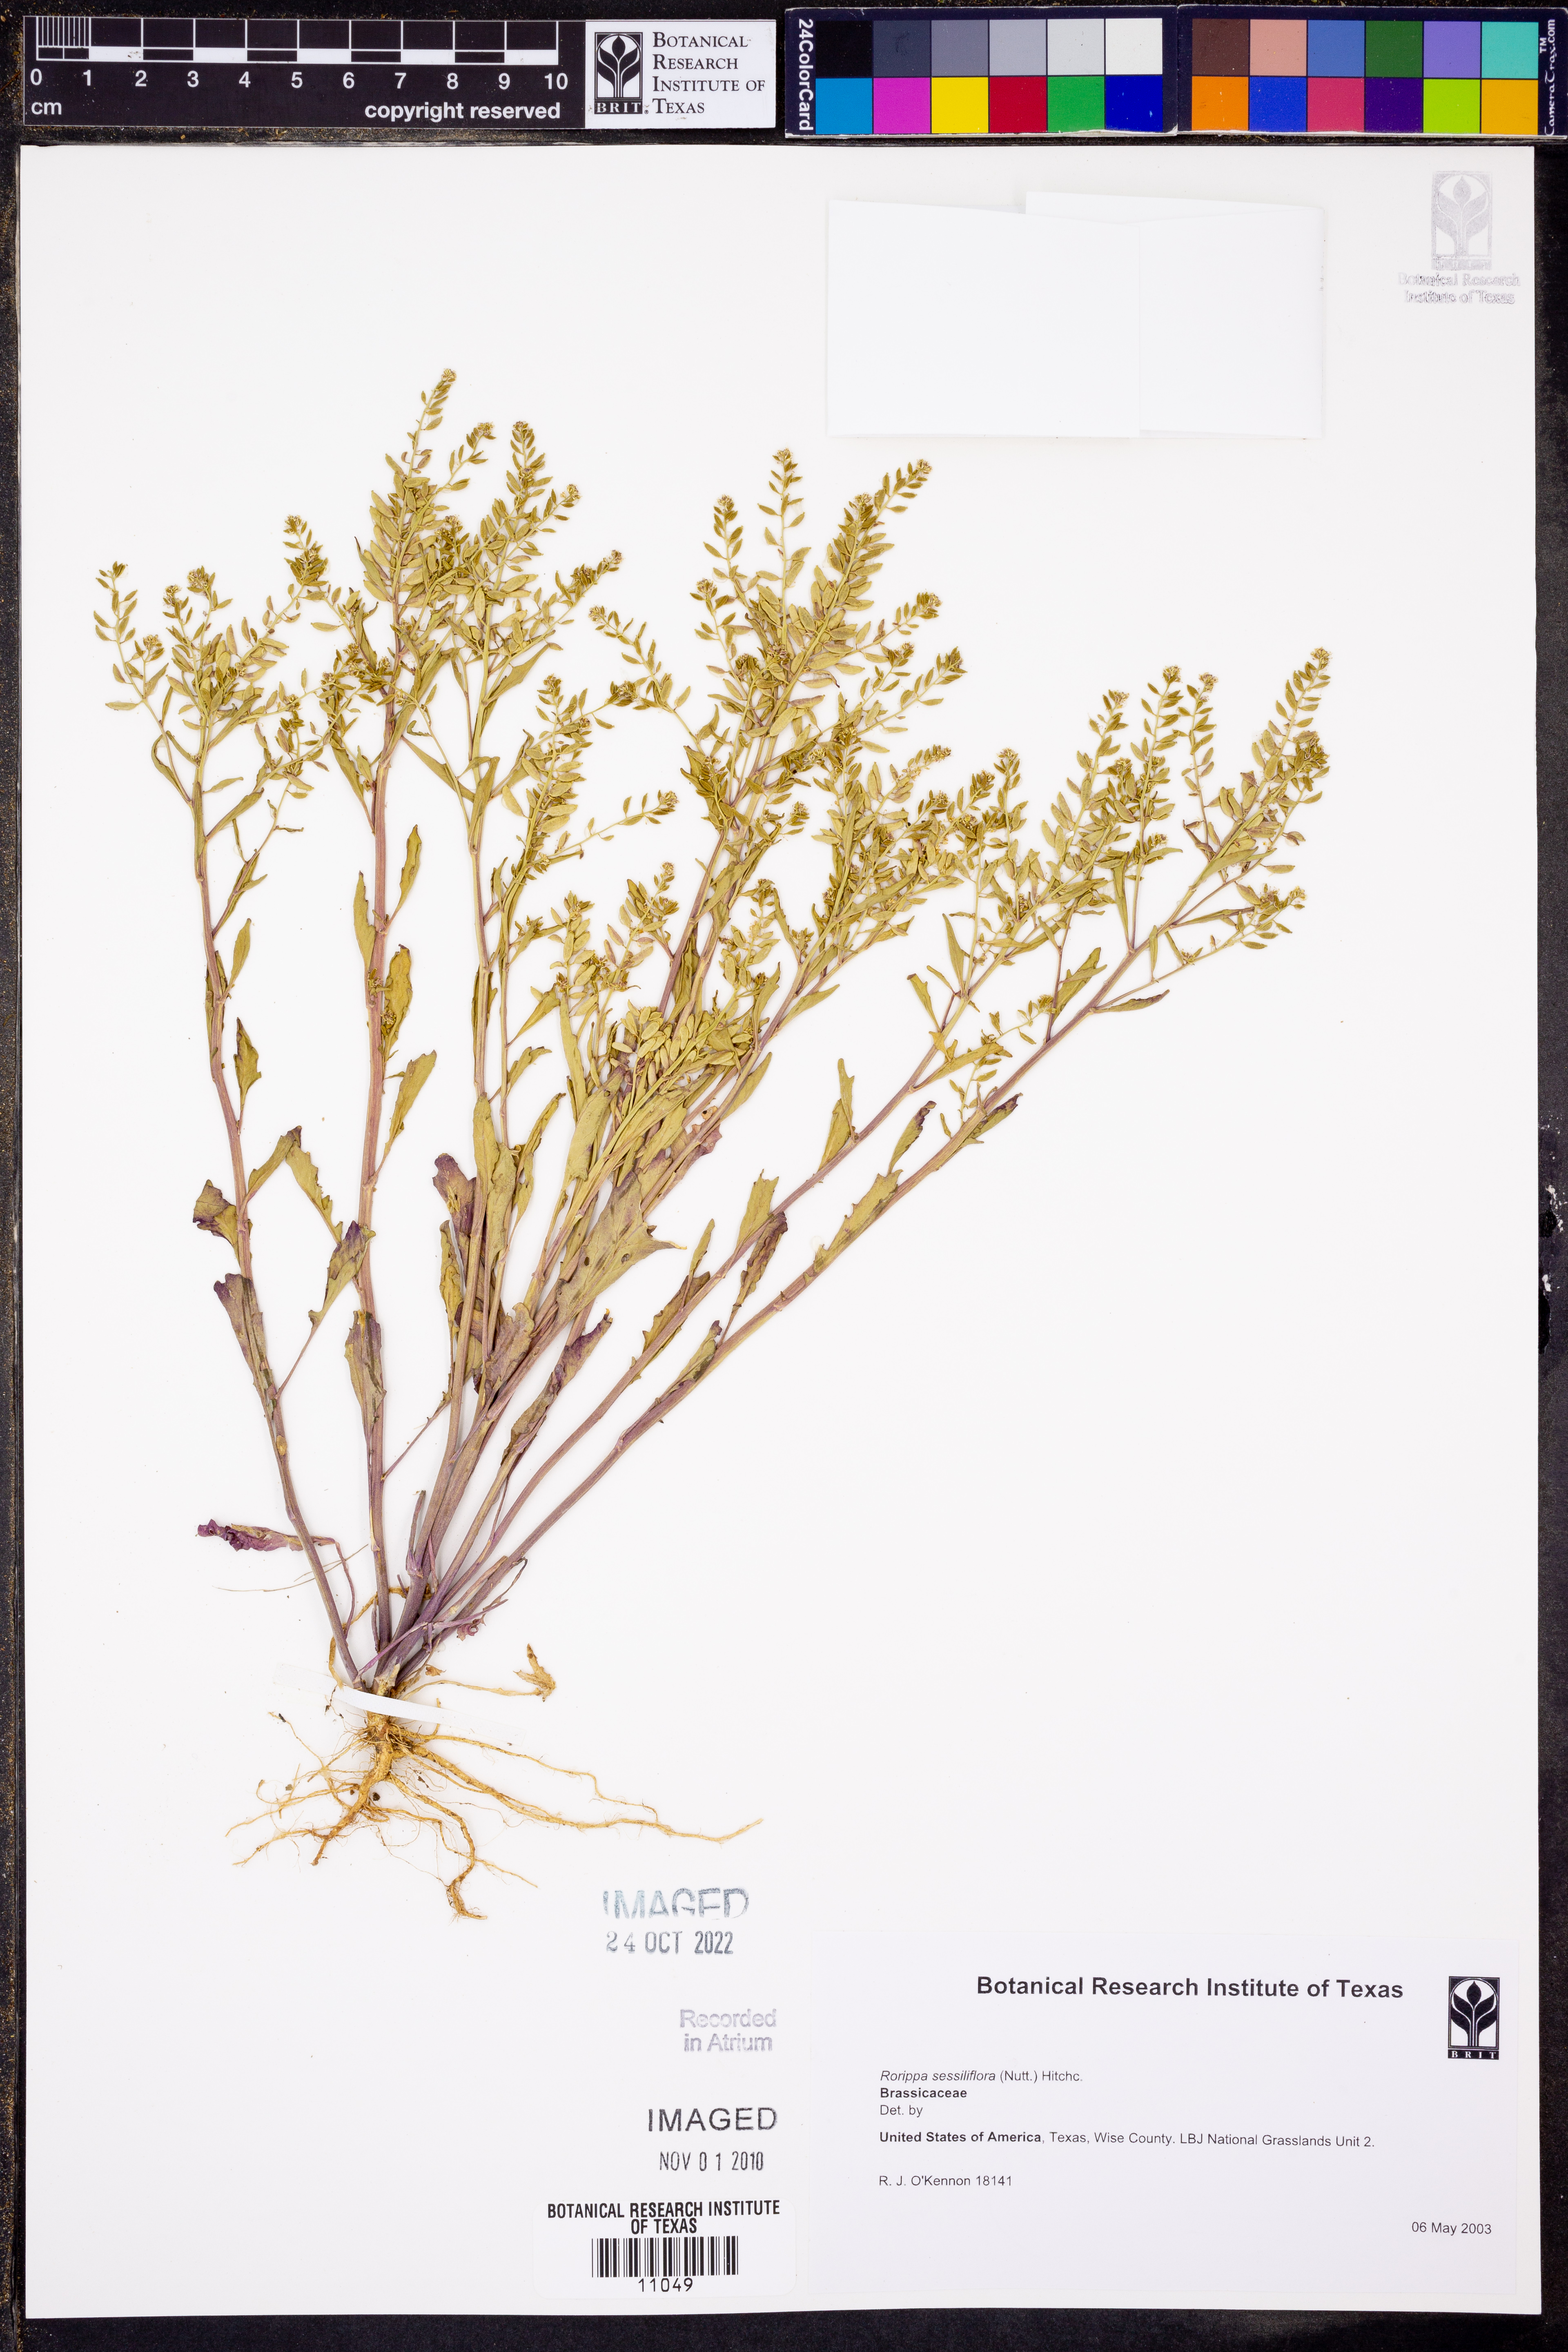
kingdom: Plantae
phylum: Tracheophyta
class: Magnoliopsida
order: Brassicales
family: Brassicaceae
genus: Rorippa
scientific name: Rorippa sessiliflora
